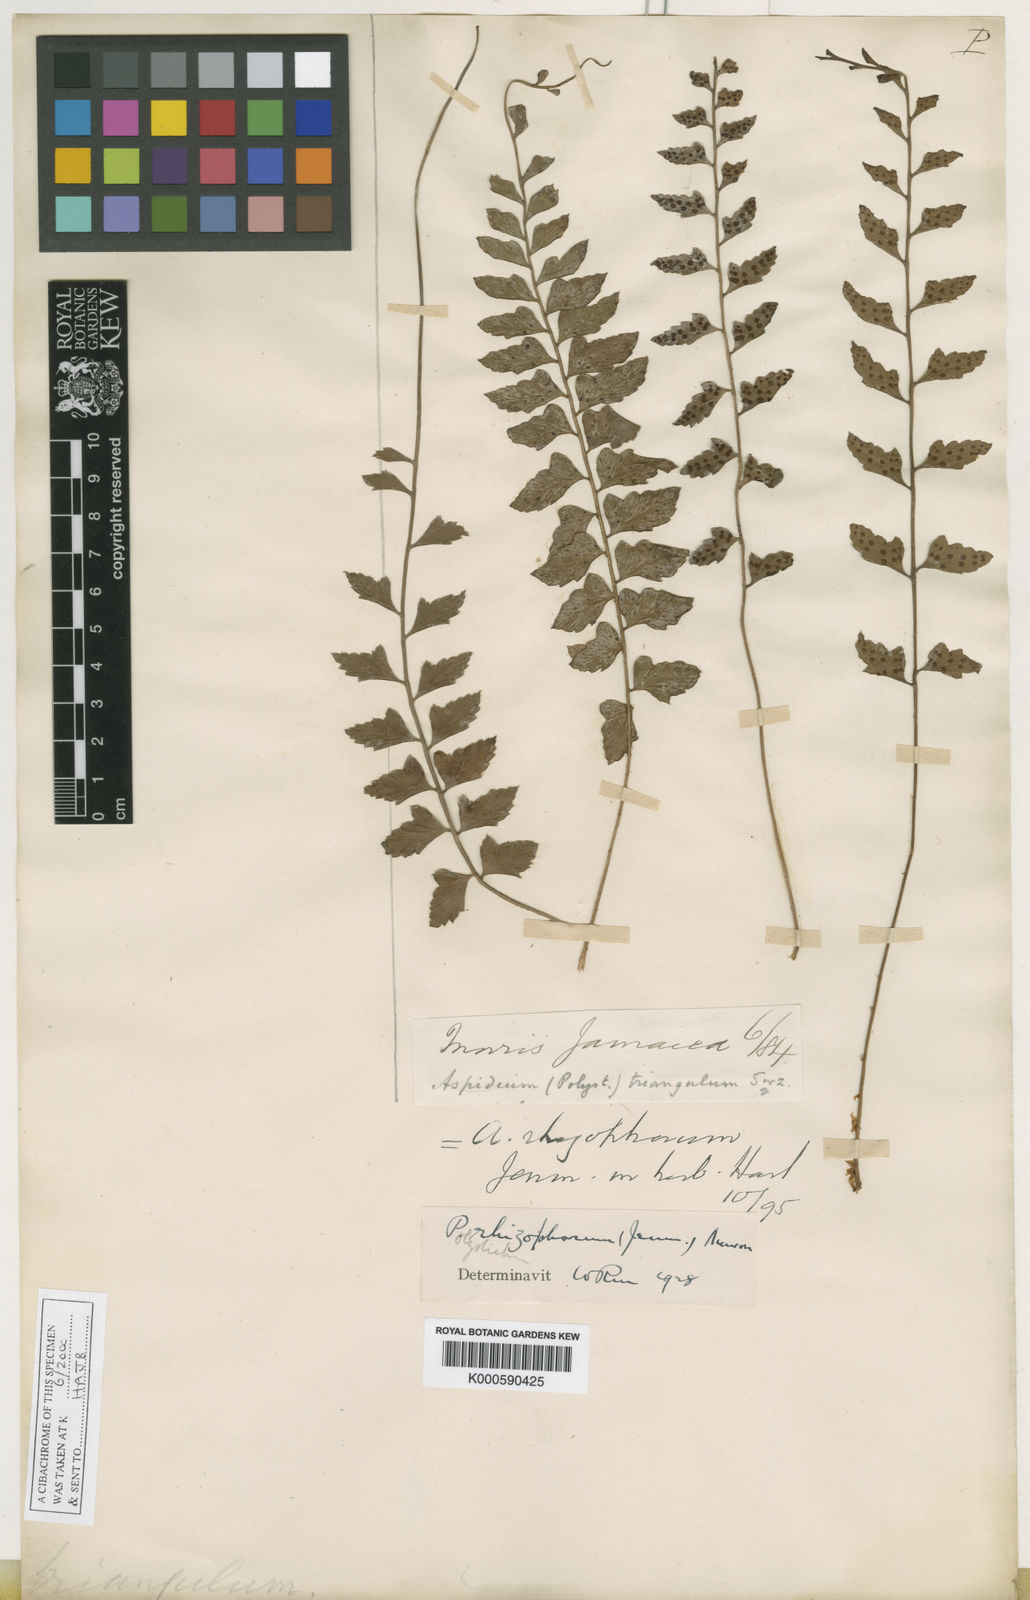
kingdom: Plantae
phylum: Tracheophyta
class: Polypodiopsida
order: Polypodiales
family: Dryopteridaceae
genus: Polystichum
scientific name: Polystichum rhizophorum
